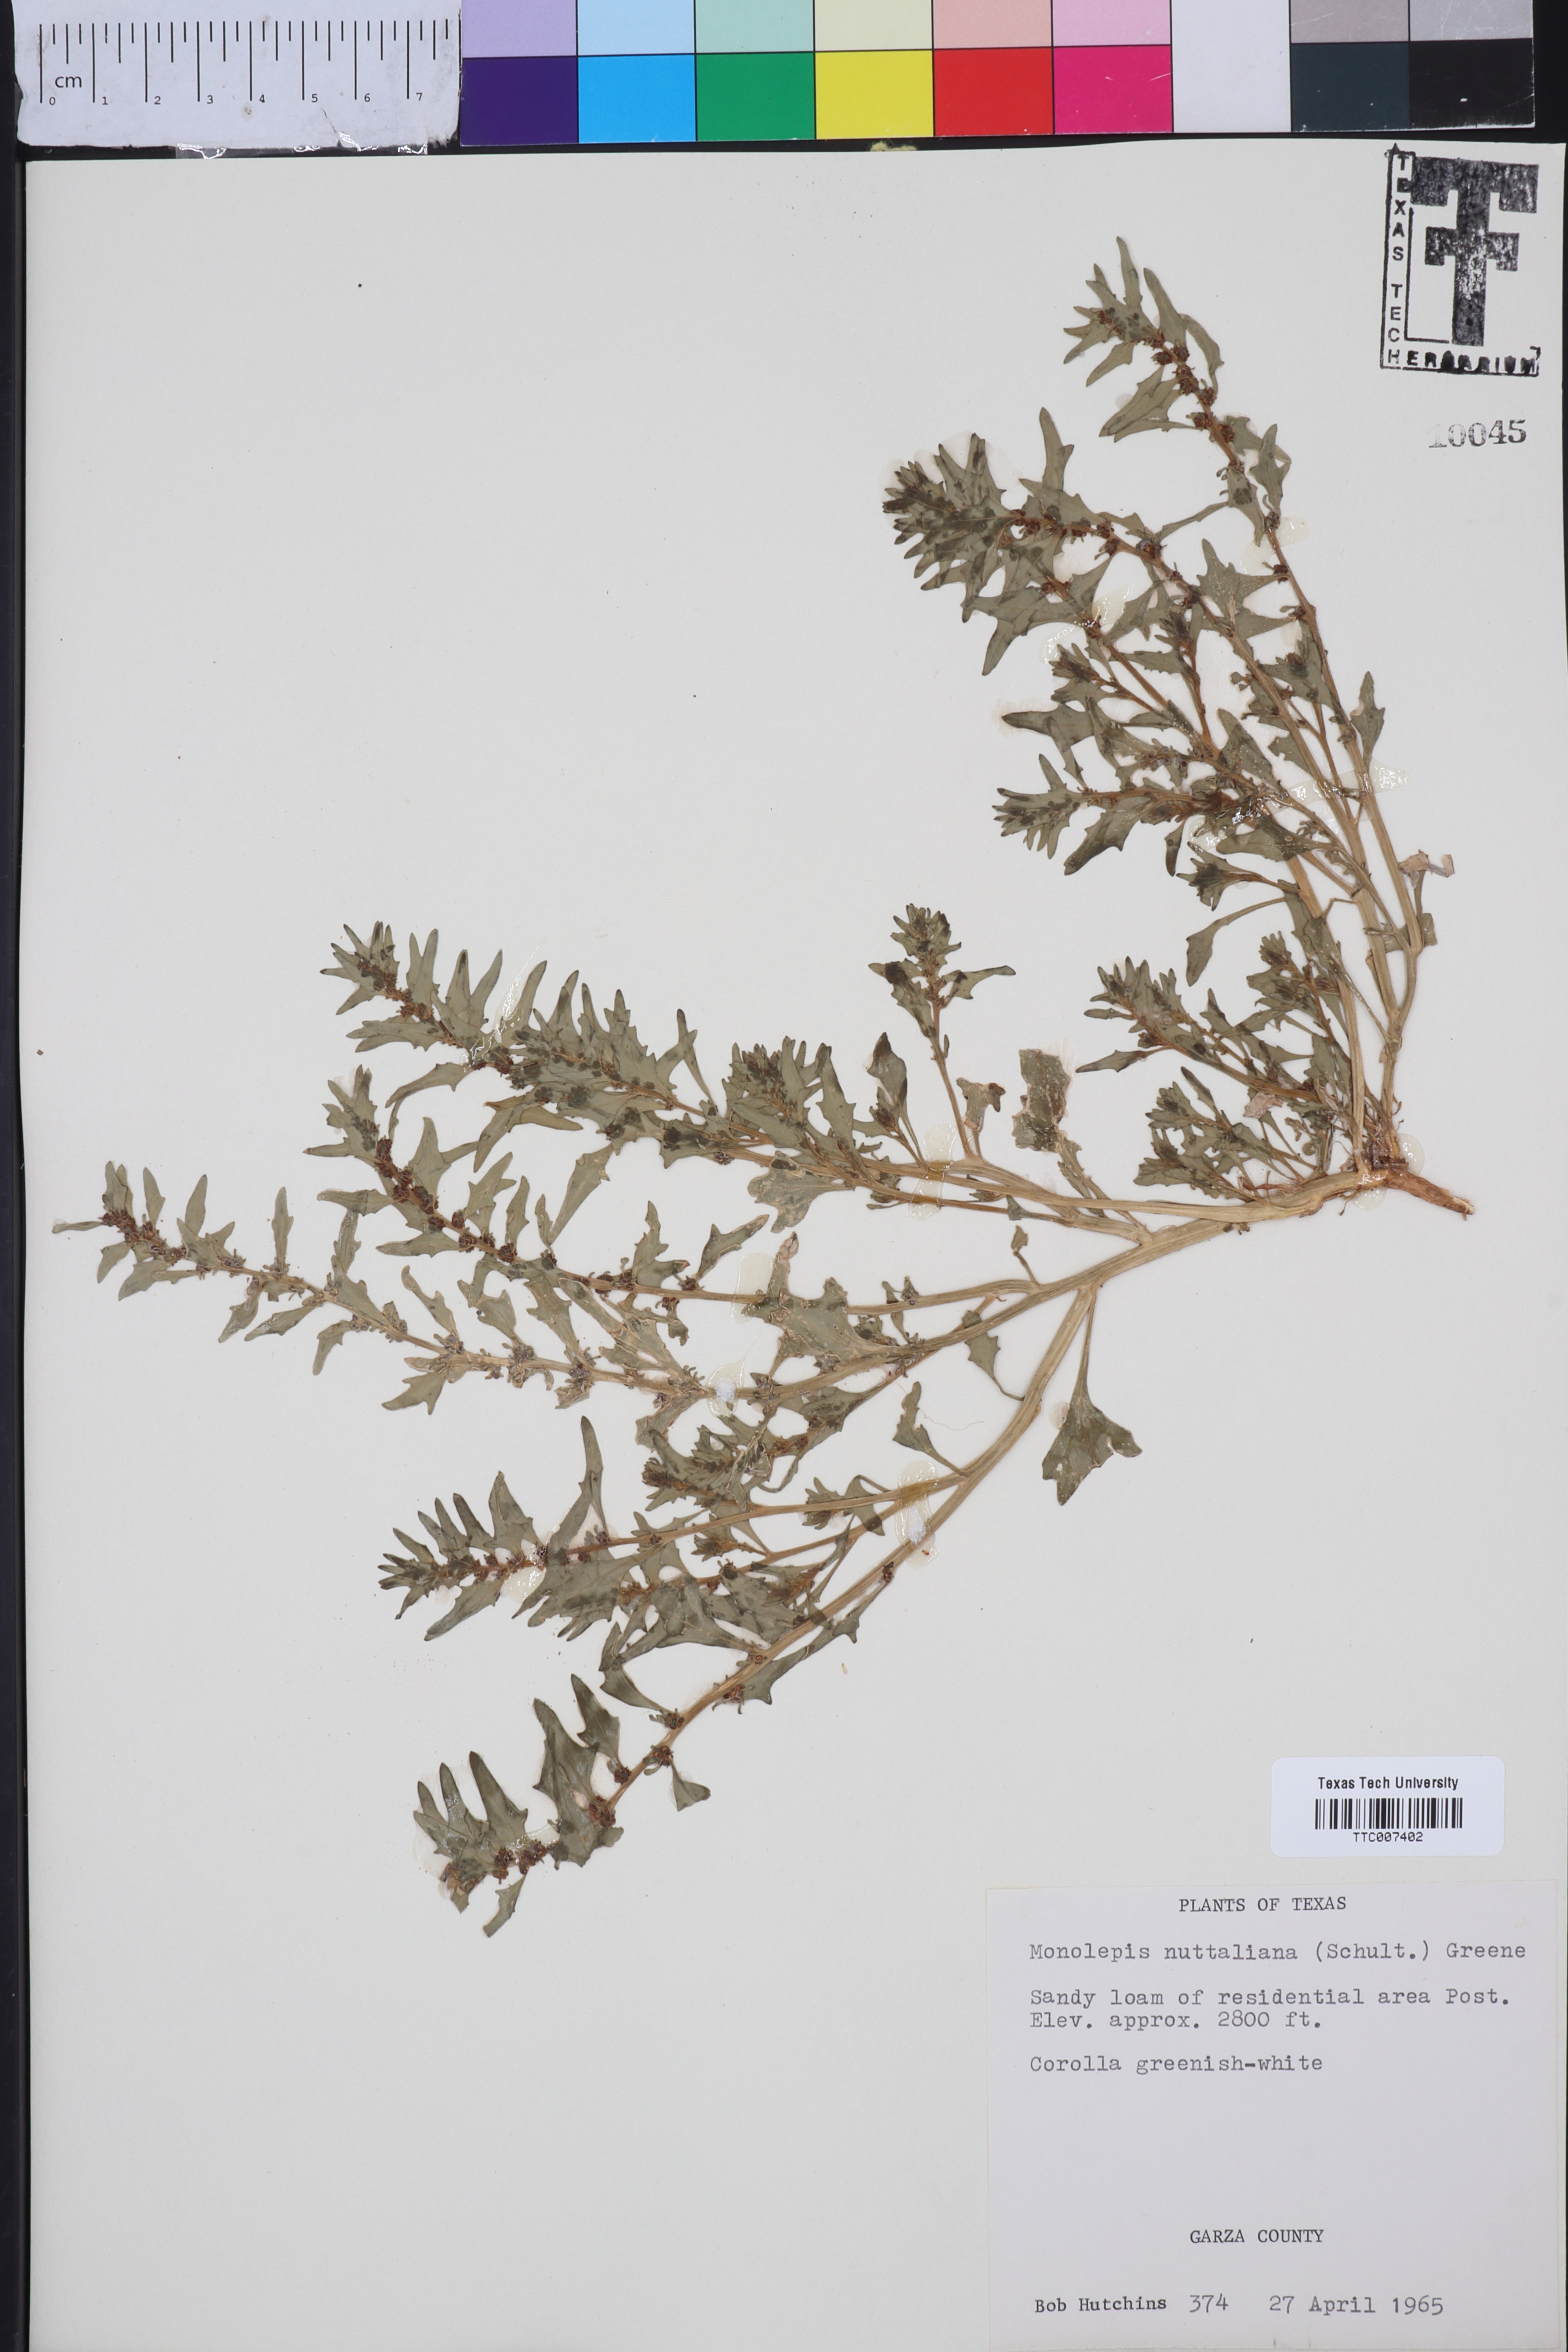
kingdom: Plantae
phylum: Tracheophyta
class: Magnoliopsida
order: Caryophyllales
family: Amaranthaceae
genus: Blitum
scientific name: Blitum nuttallianum
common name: Poverty-weed
